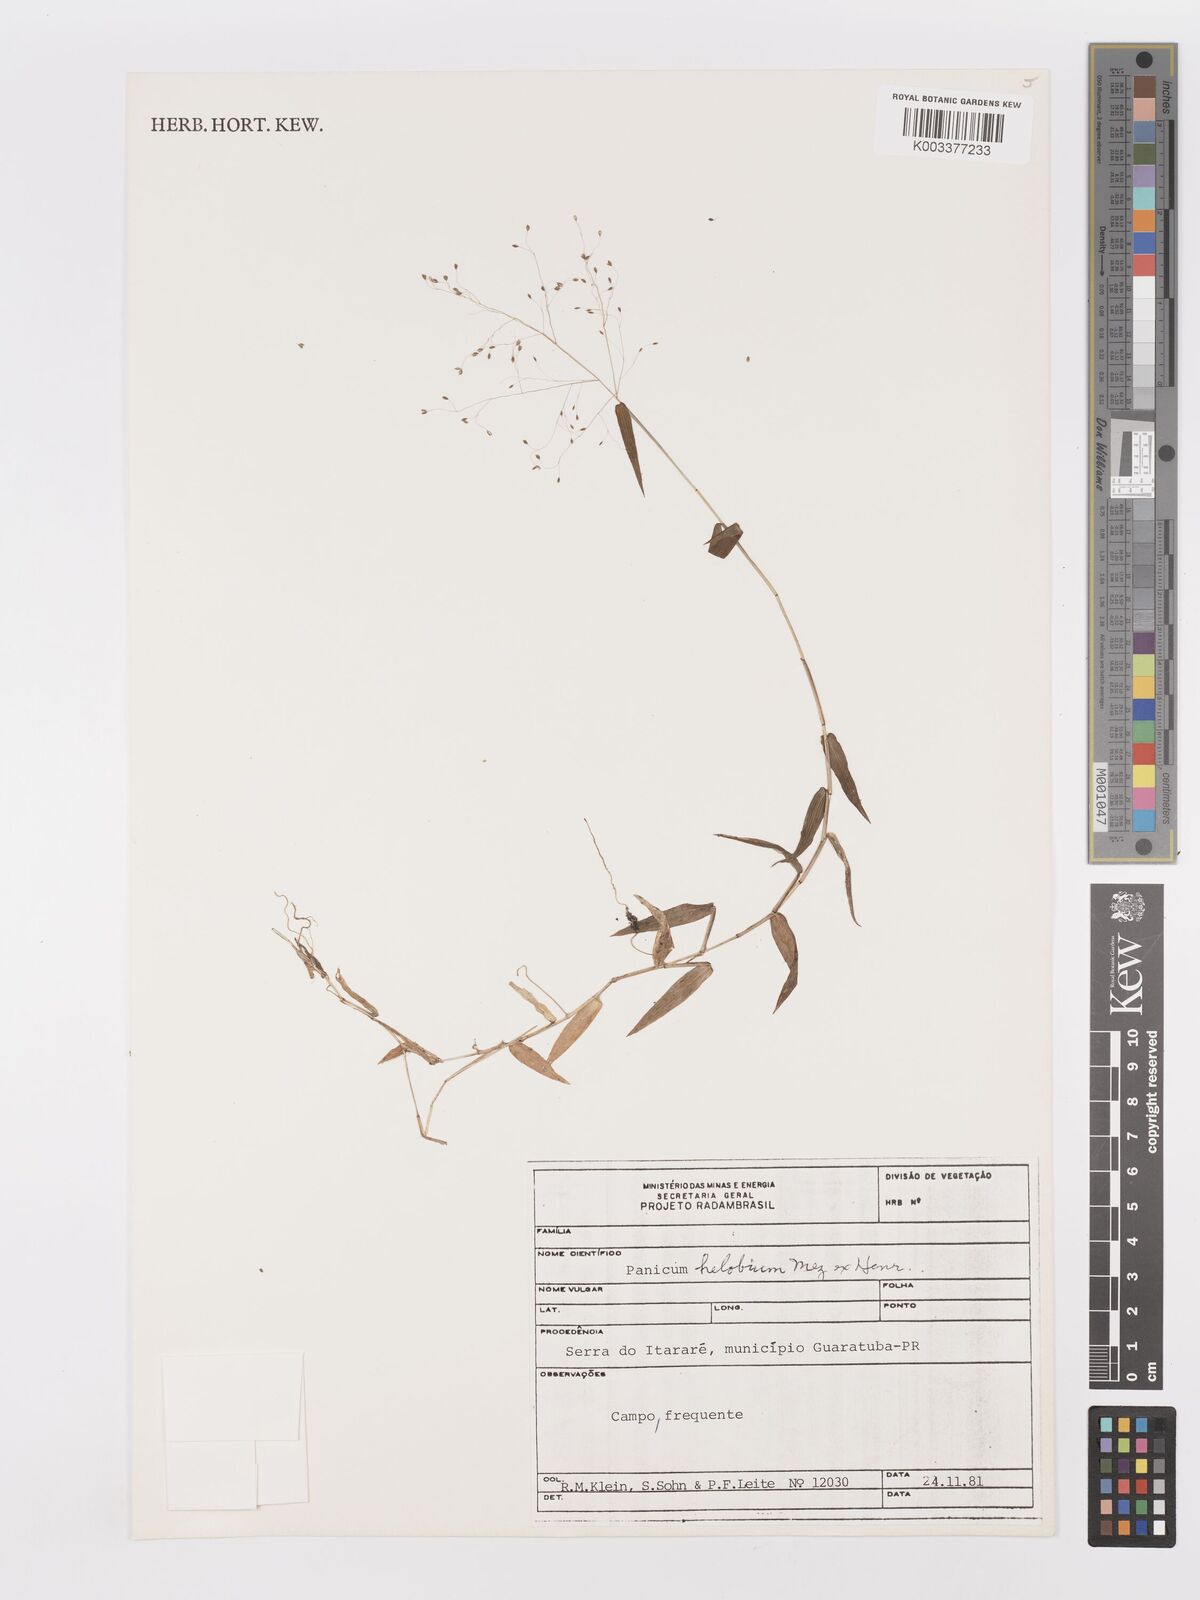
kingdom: Plantae
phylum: Tracheophyta
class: Liliopsida
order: Poales
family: Poaceae
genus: Trichanthecium
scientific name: Trichanthecium schwackeanum
